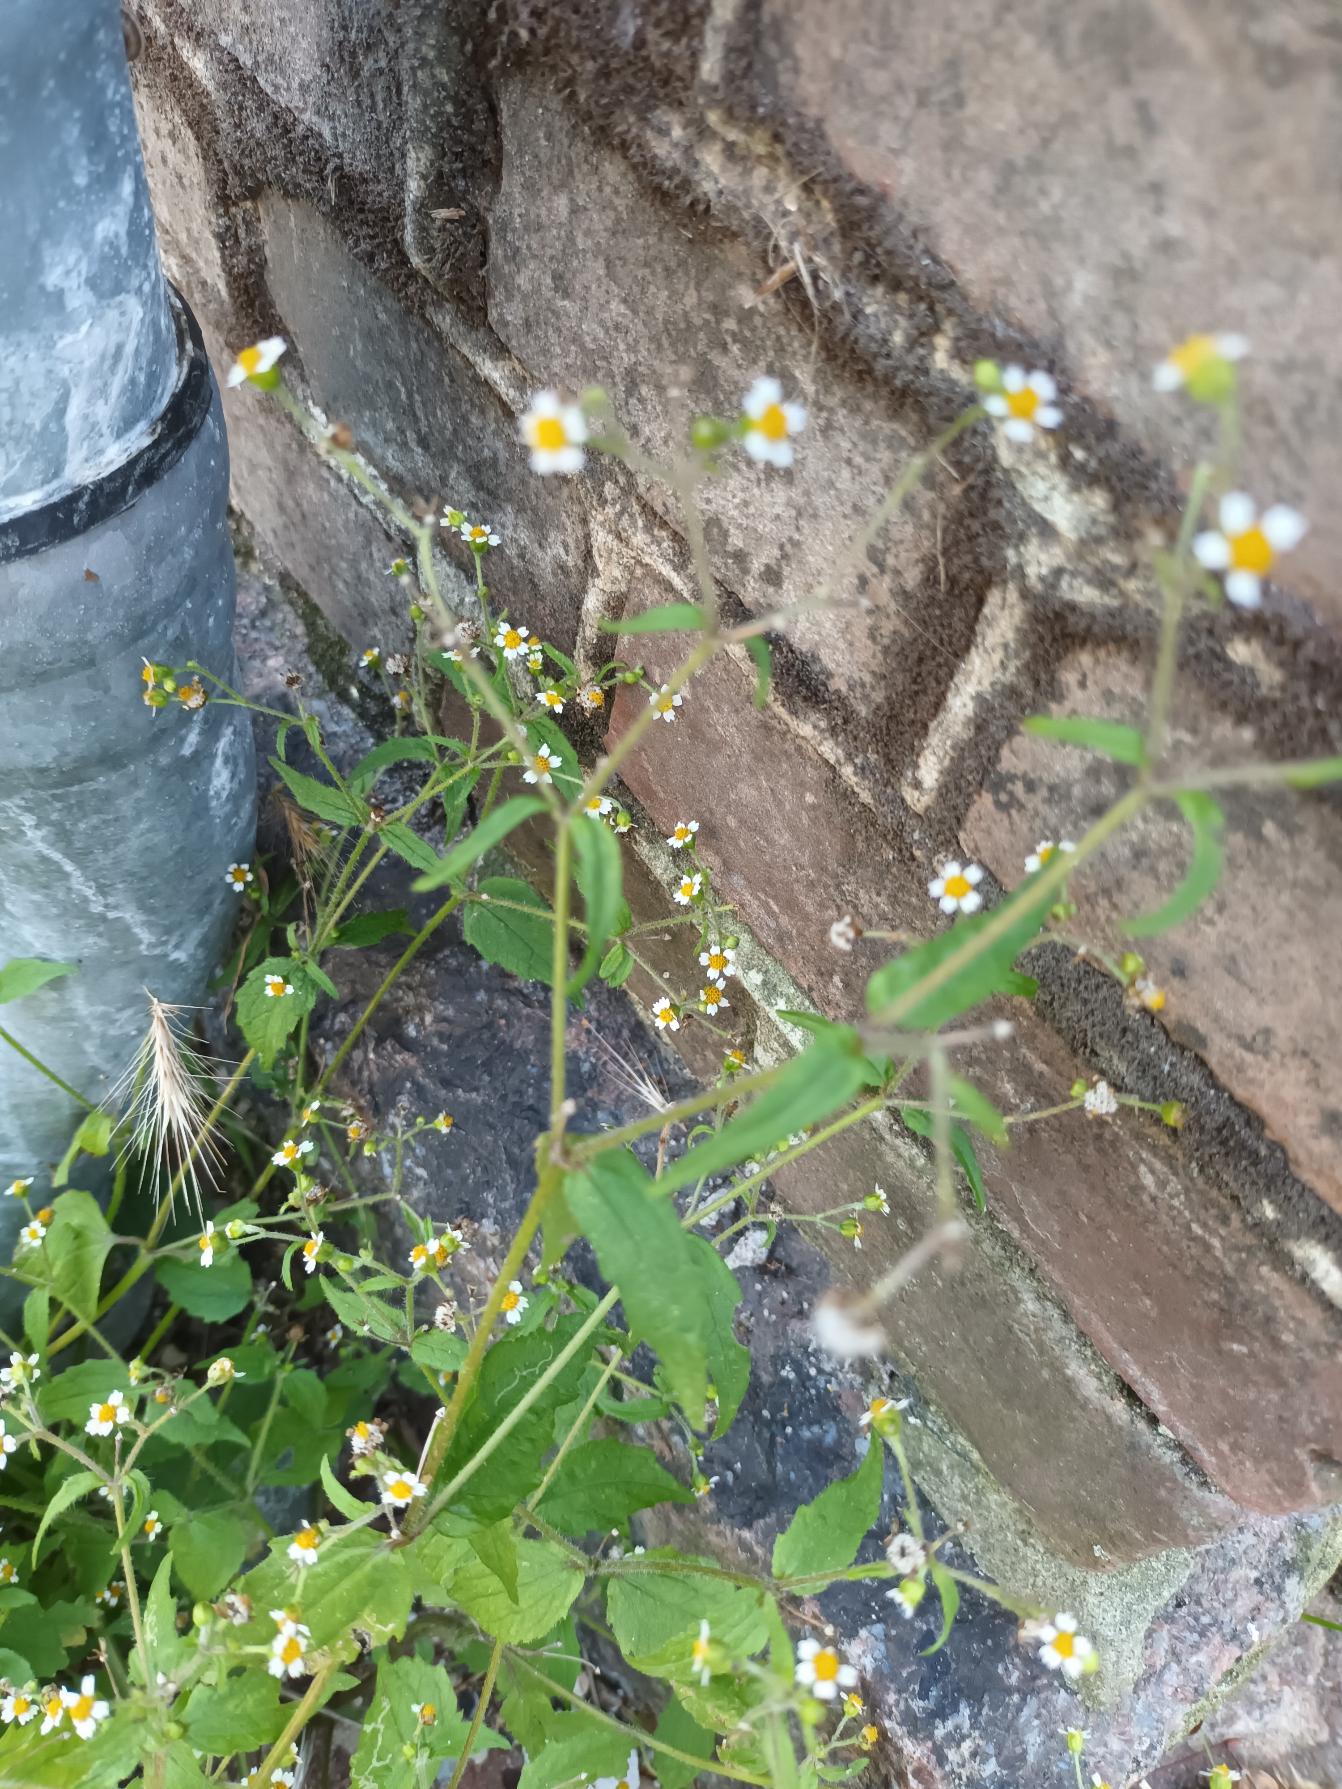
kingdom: Plantae
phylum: Tracheophyta
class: Magnoliopsida
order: Asterales
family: Asteraceae
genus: Galinsoga
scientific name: Galinsoga parviflora
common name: Håret kortstråle
